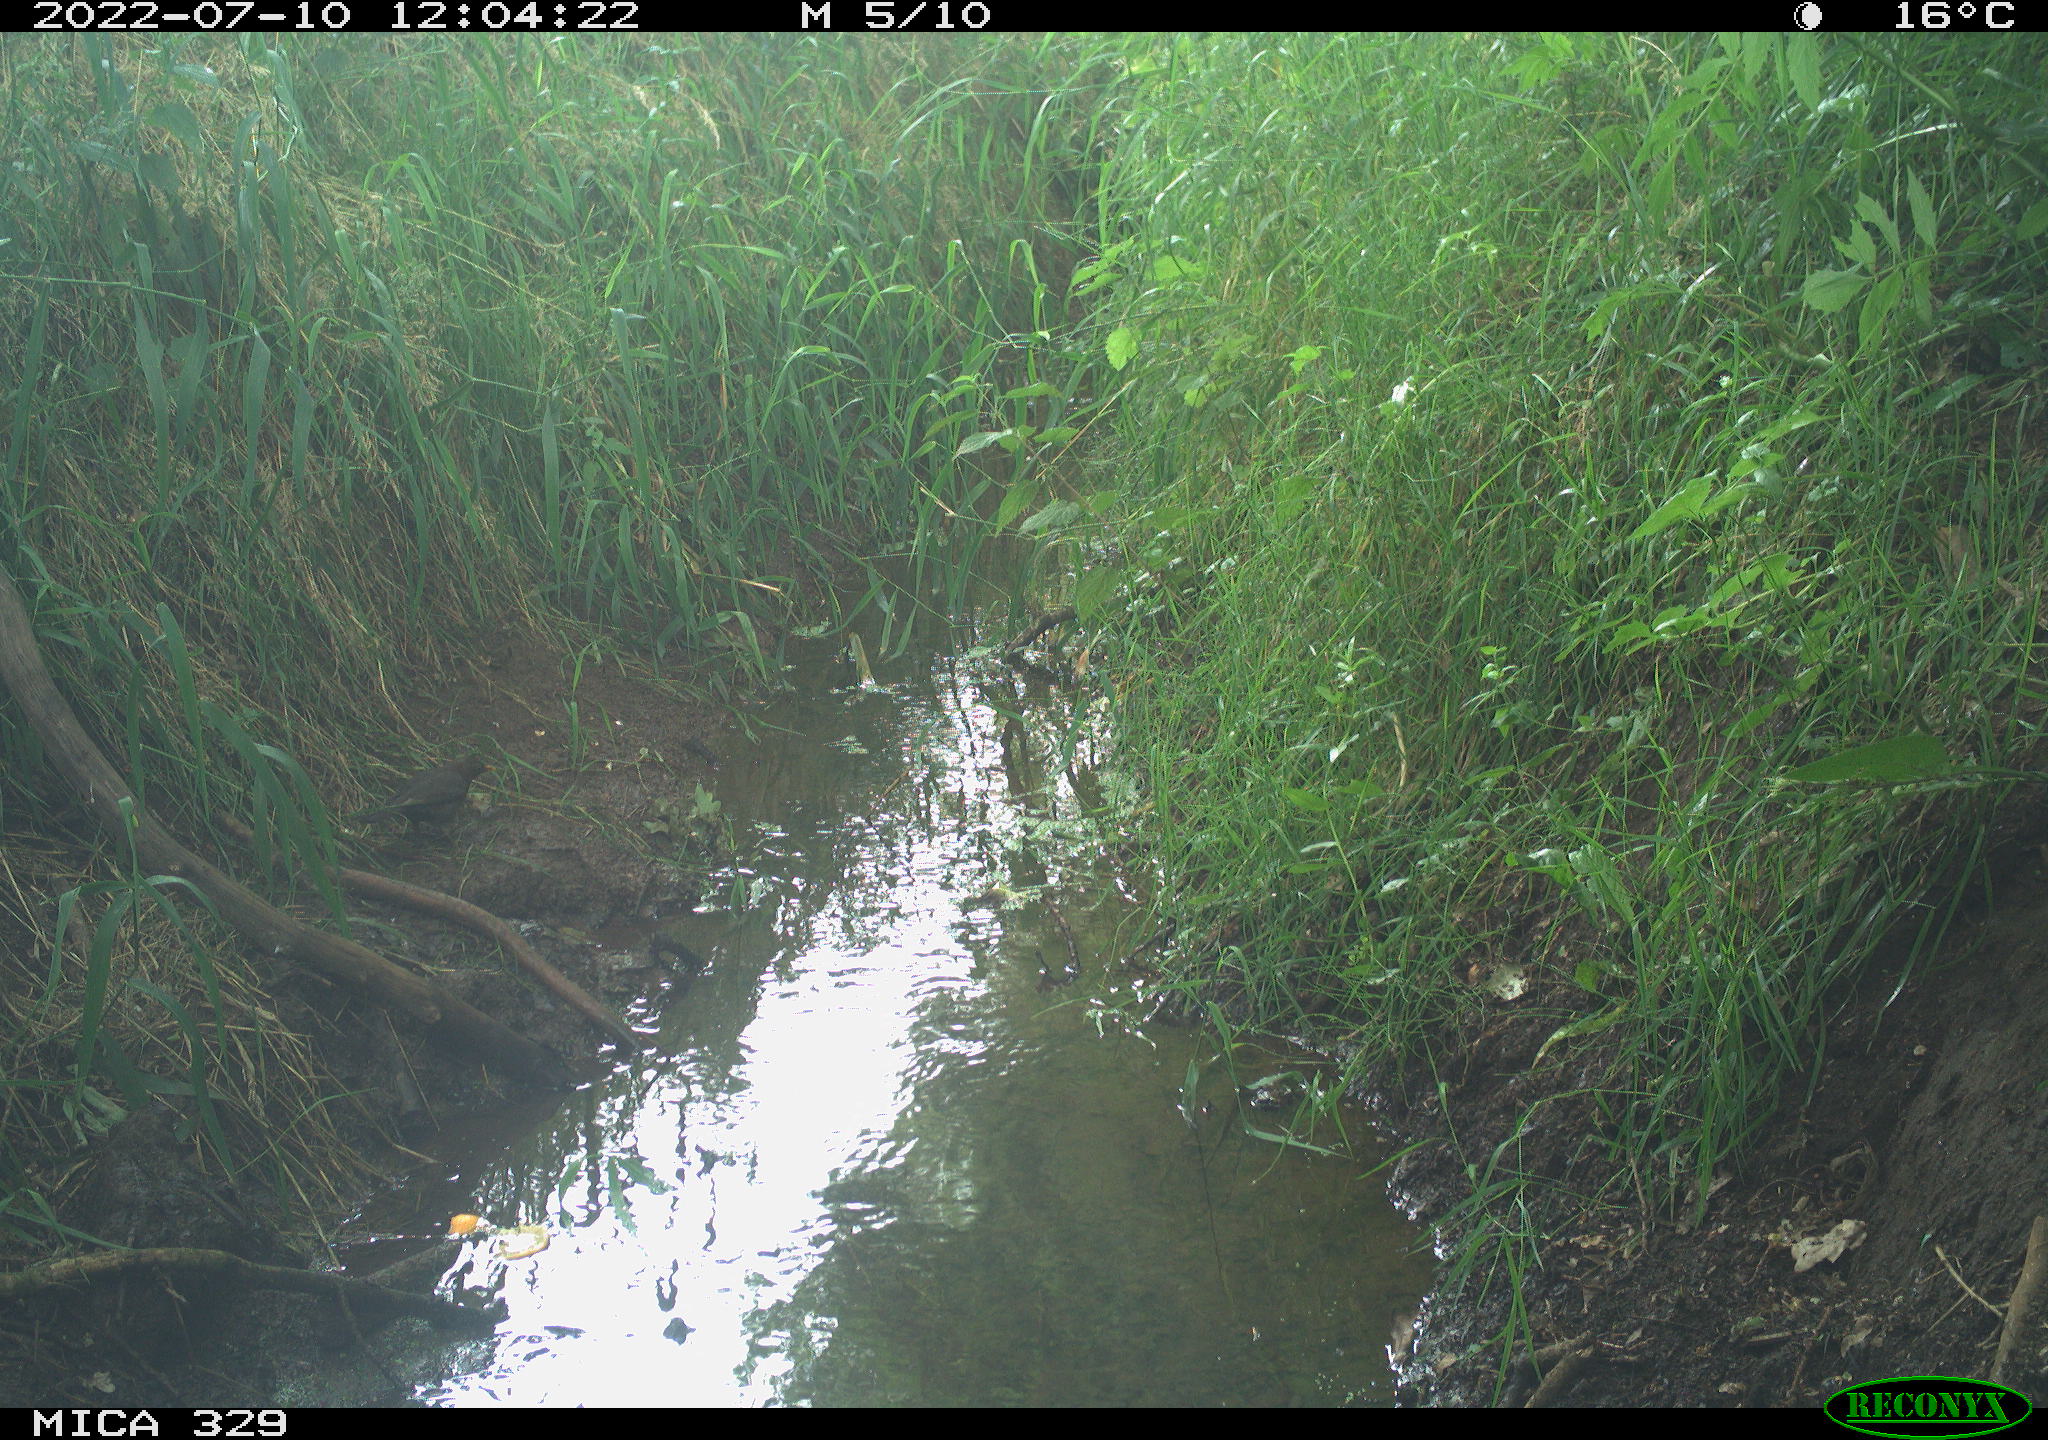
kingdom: Animalia
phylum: Chordata
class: Aves
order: Passeriformes
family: Turdidae
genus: Turdus
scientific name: Turdus merula
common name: Common blackbird
